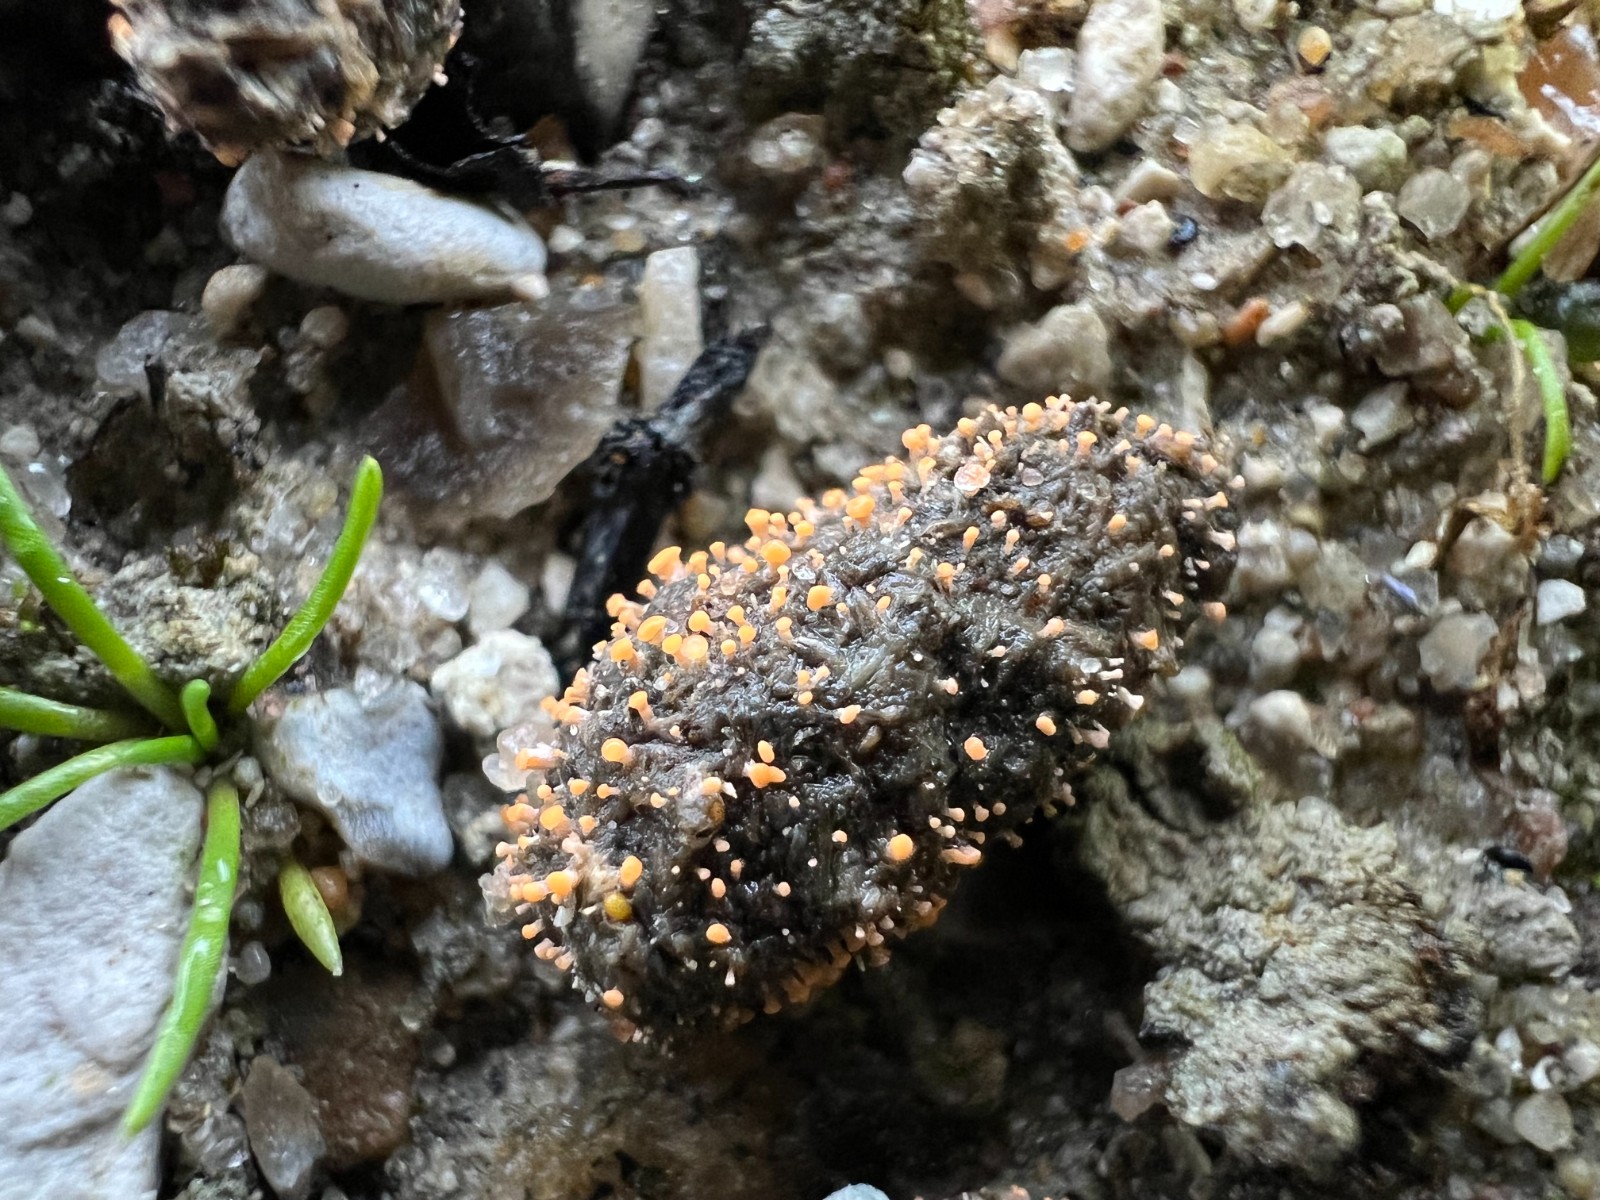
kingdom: Fungi
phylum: Ascomycota
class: Sordariomycetes
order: Hypocreales
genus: Stilbella
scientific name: Stilbella fimetaria
